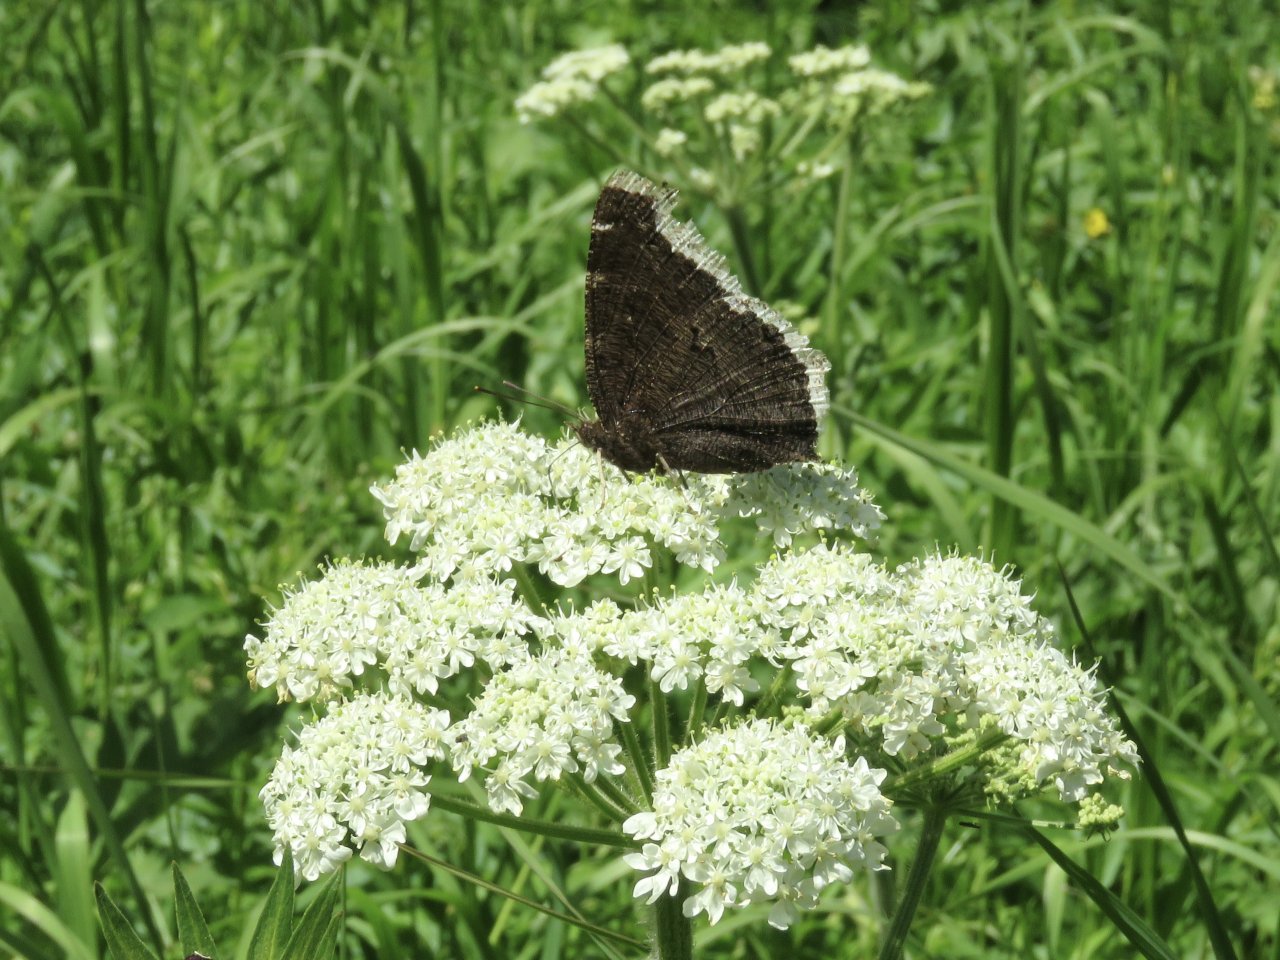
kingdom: Animalia
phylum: Arthropoda
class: Insecta
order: Lepidoptera
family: Nymphalidae
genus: Nymphalis
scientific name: Nymphalis antiopa
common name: Mourning Cloak
